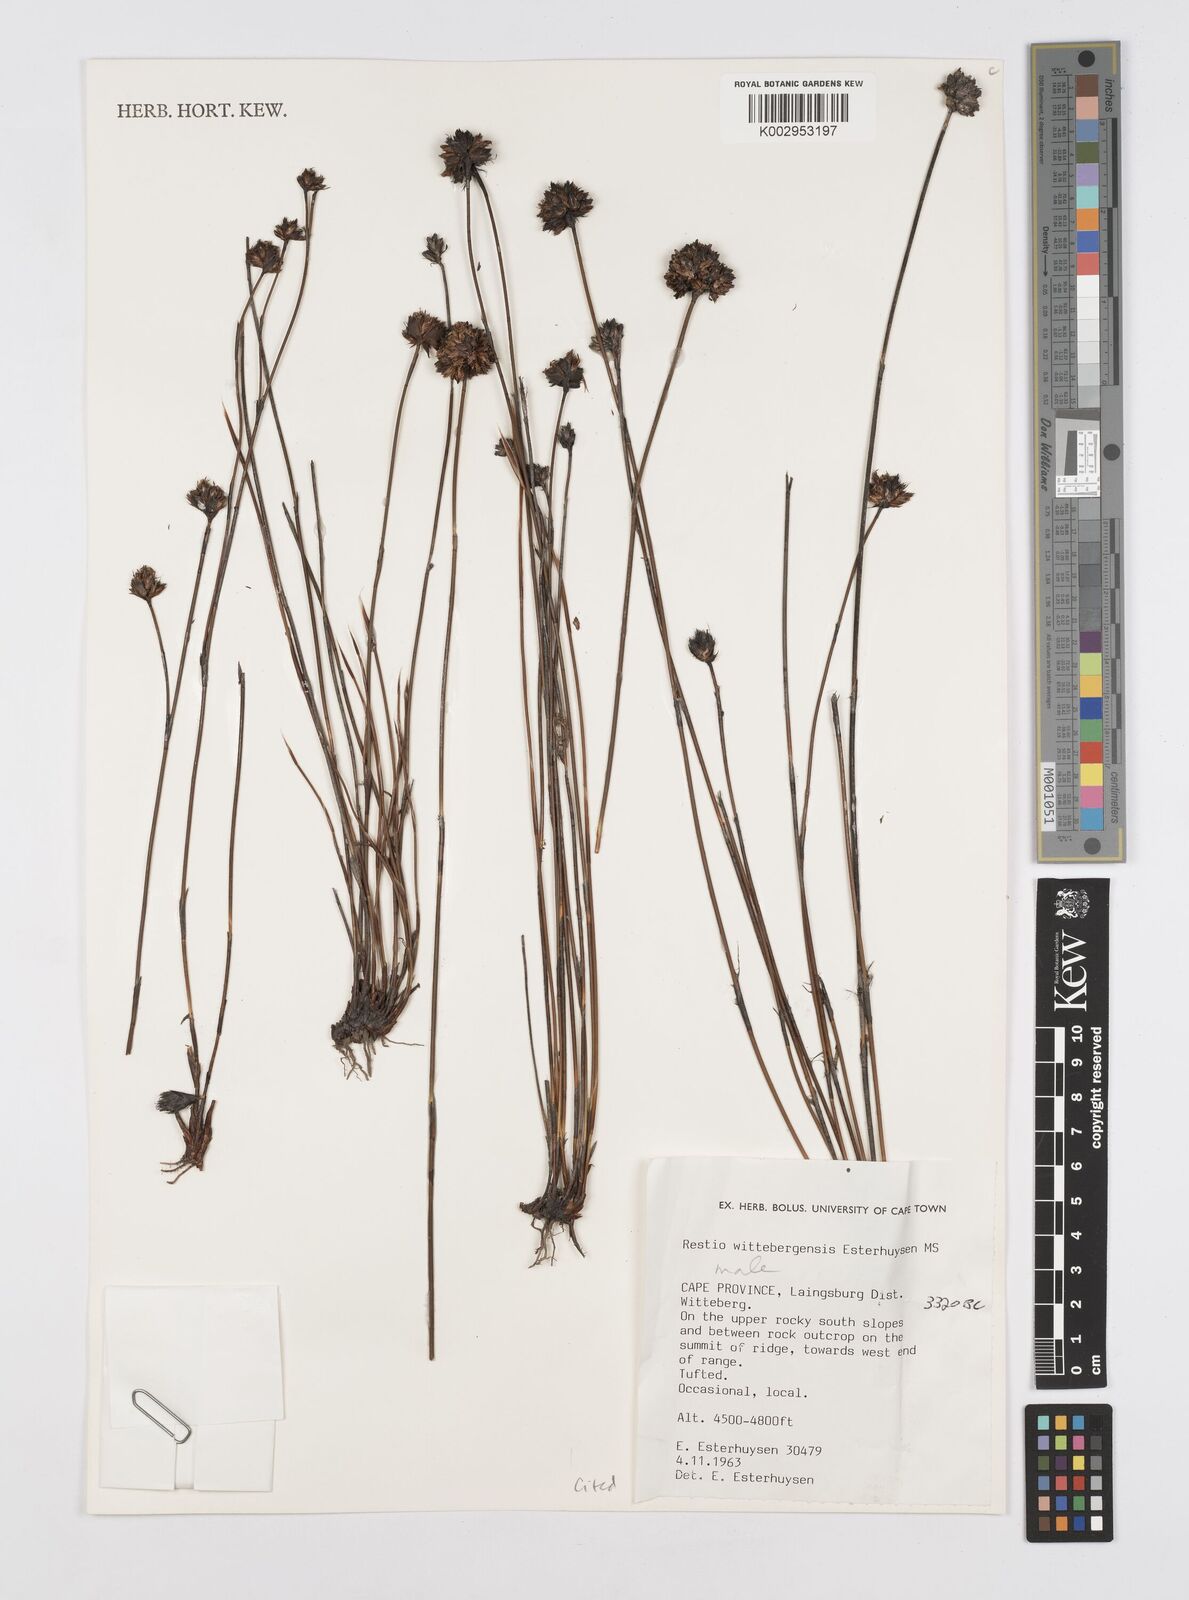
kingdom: Plantae
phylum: Tracheophyta
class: Liliopsida
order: Poales
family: Restionaceae
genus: Restio
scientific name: Restio wittebergensis
